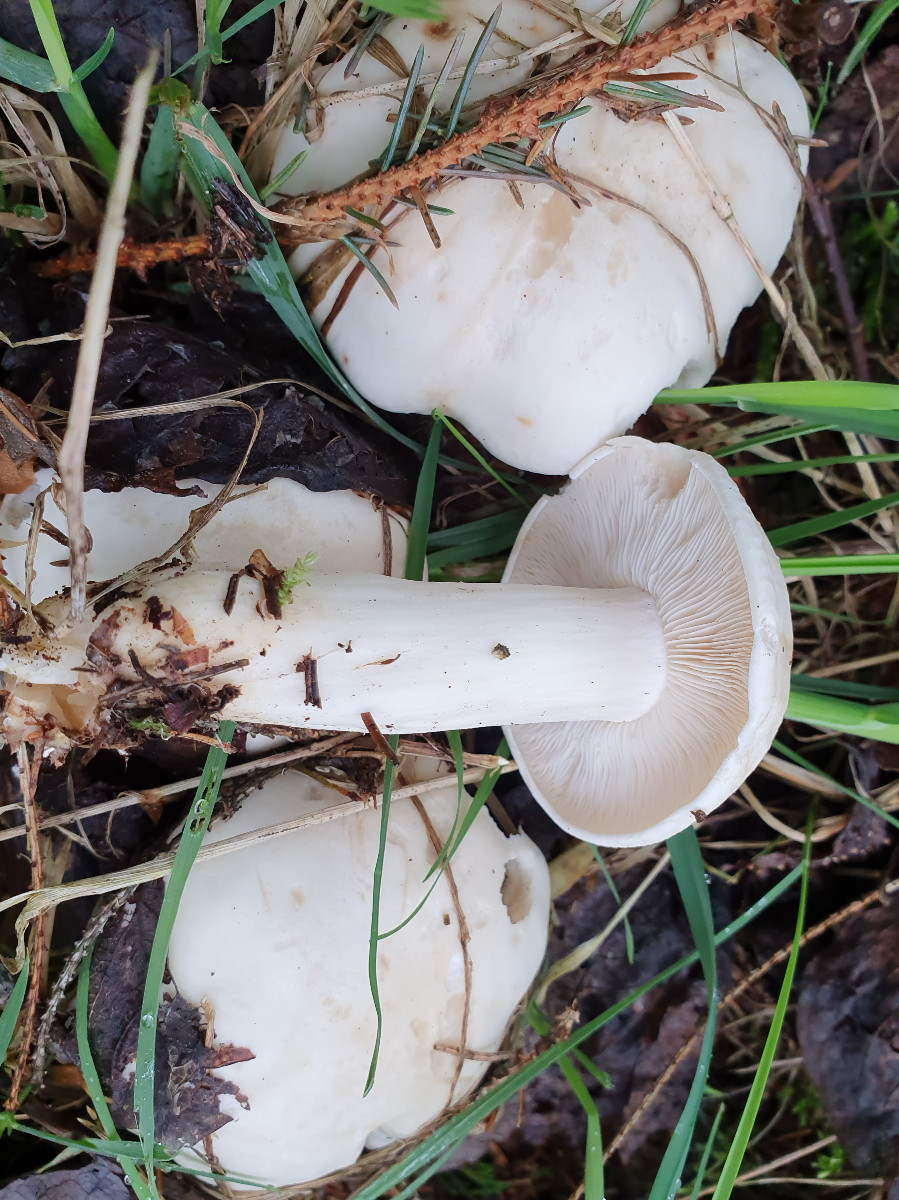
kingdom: Fungi
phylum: Basidiomycota
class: Agaricomycetes
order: Agaricales
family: Lyophyllaceae
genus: Calocybe
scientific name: Calocybe gambosa
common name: vårmusseron
